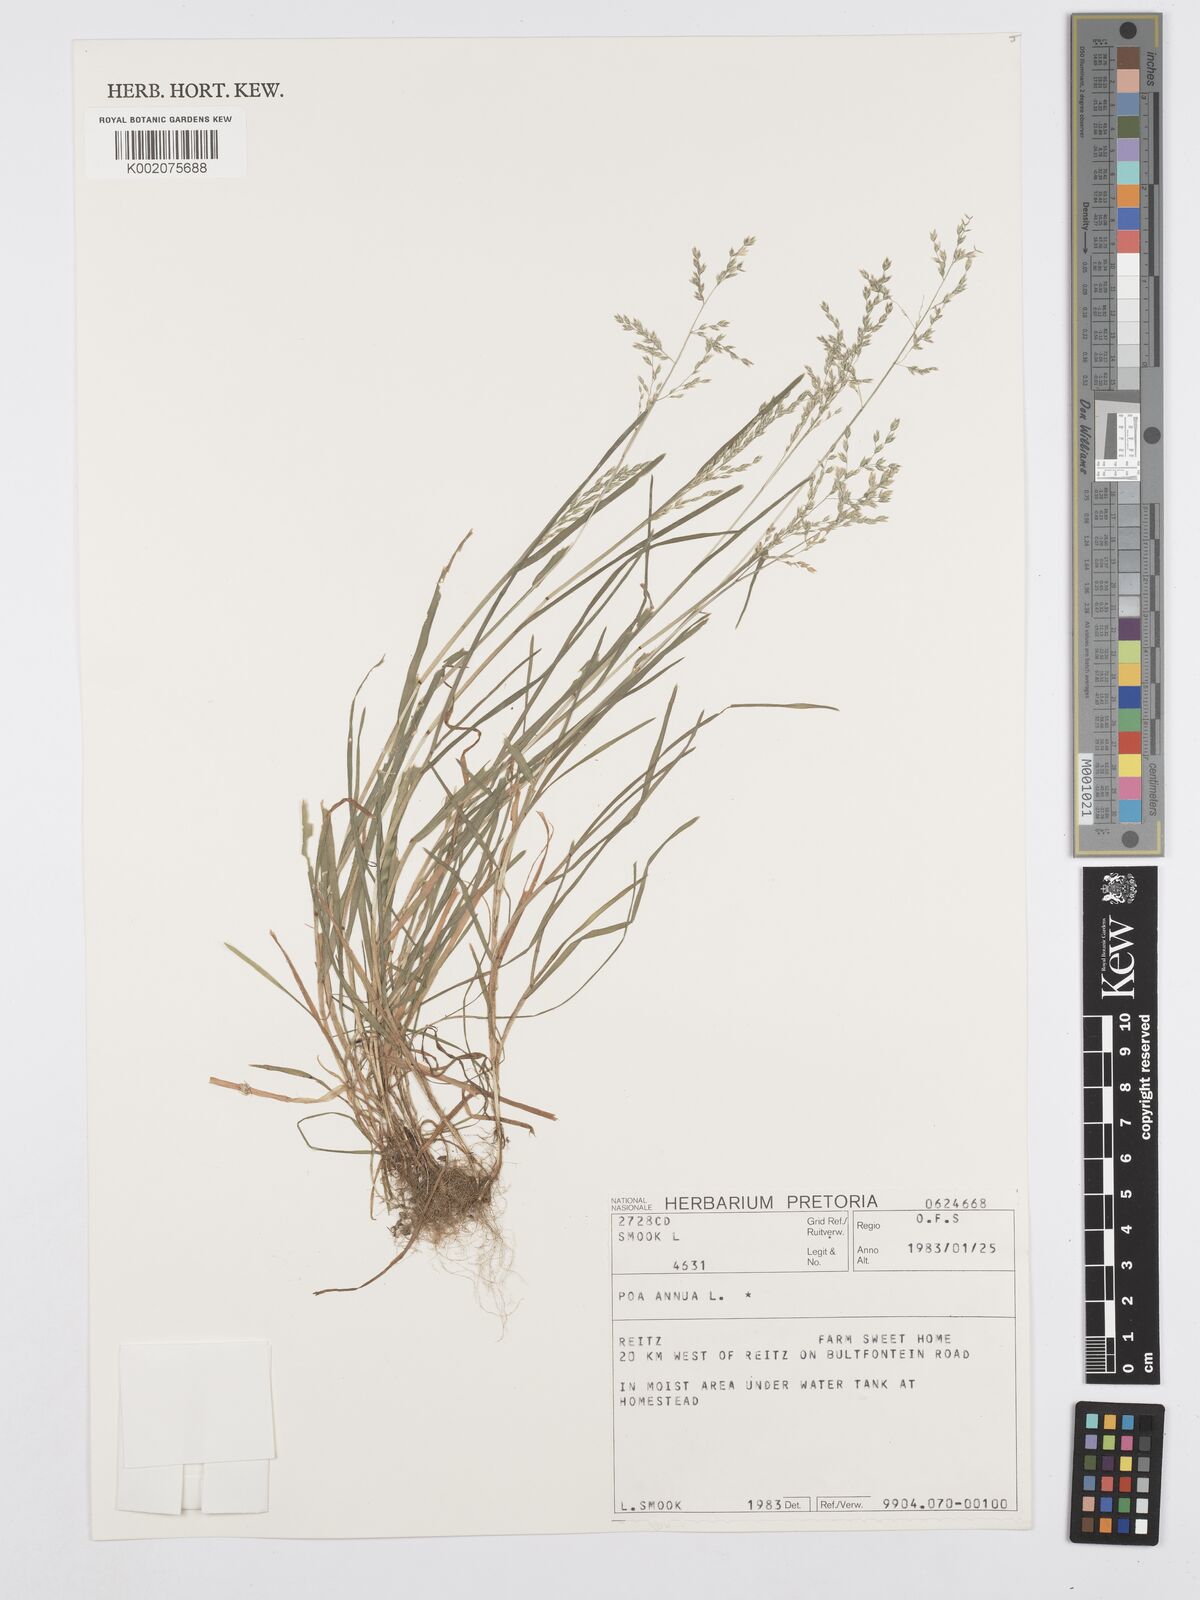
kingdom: Plantae
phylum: Tracheophyta
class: Liliopsida
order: Poales
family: Poaceae
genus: Poa
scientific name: Poa annua
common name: Annual bluegrass
